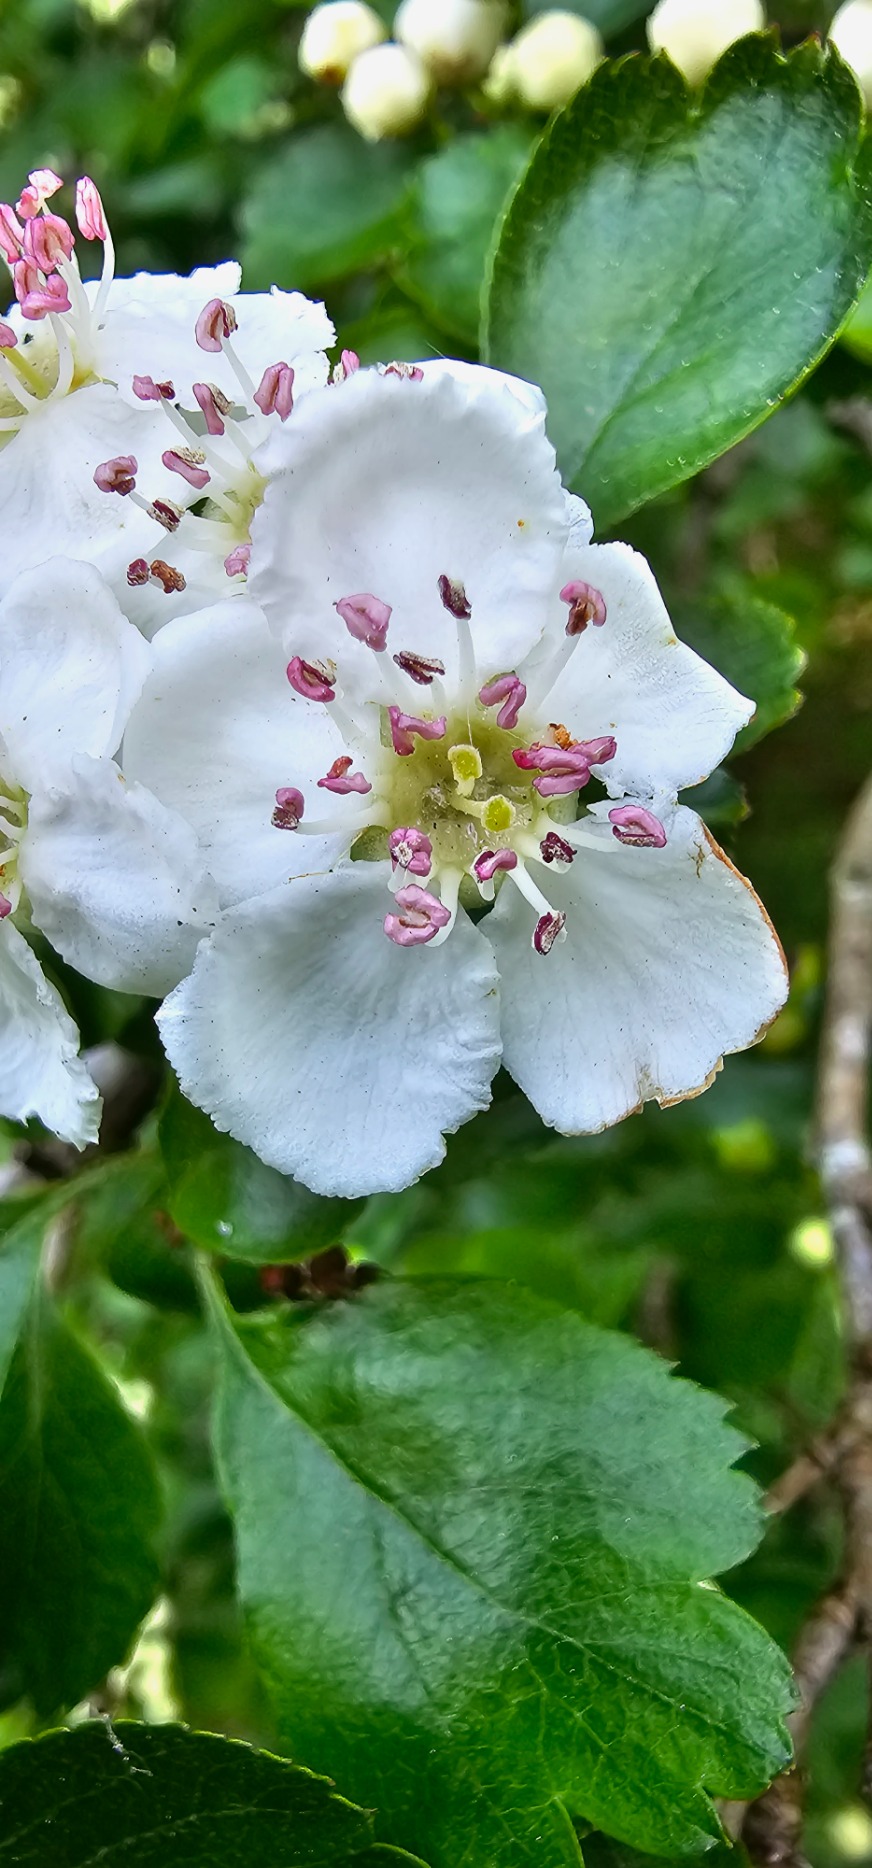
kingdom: Plantae
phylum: Tracheophyta
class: Magnoliopsida
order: Rosales
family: Rosaceae
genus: Crataegus
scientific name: Crataegus laevigata
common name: Almindelig hvidtjørn
